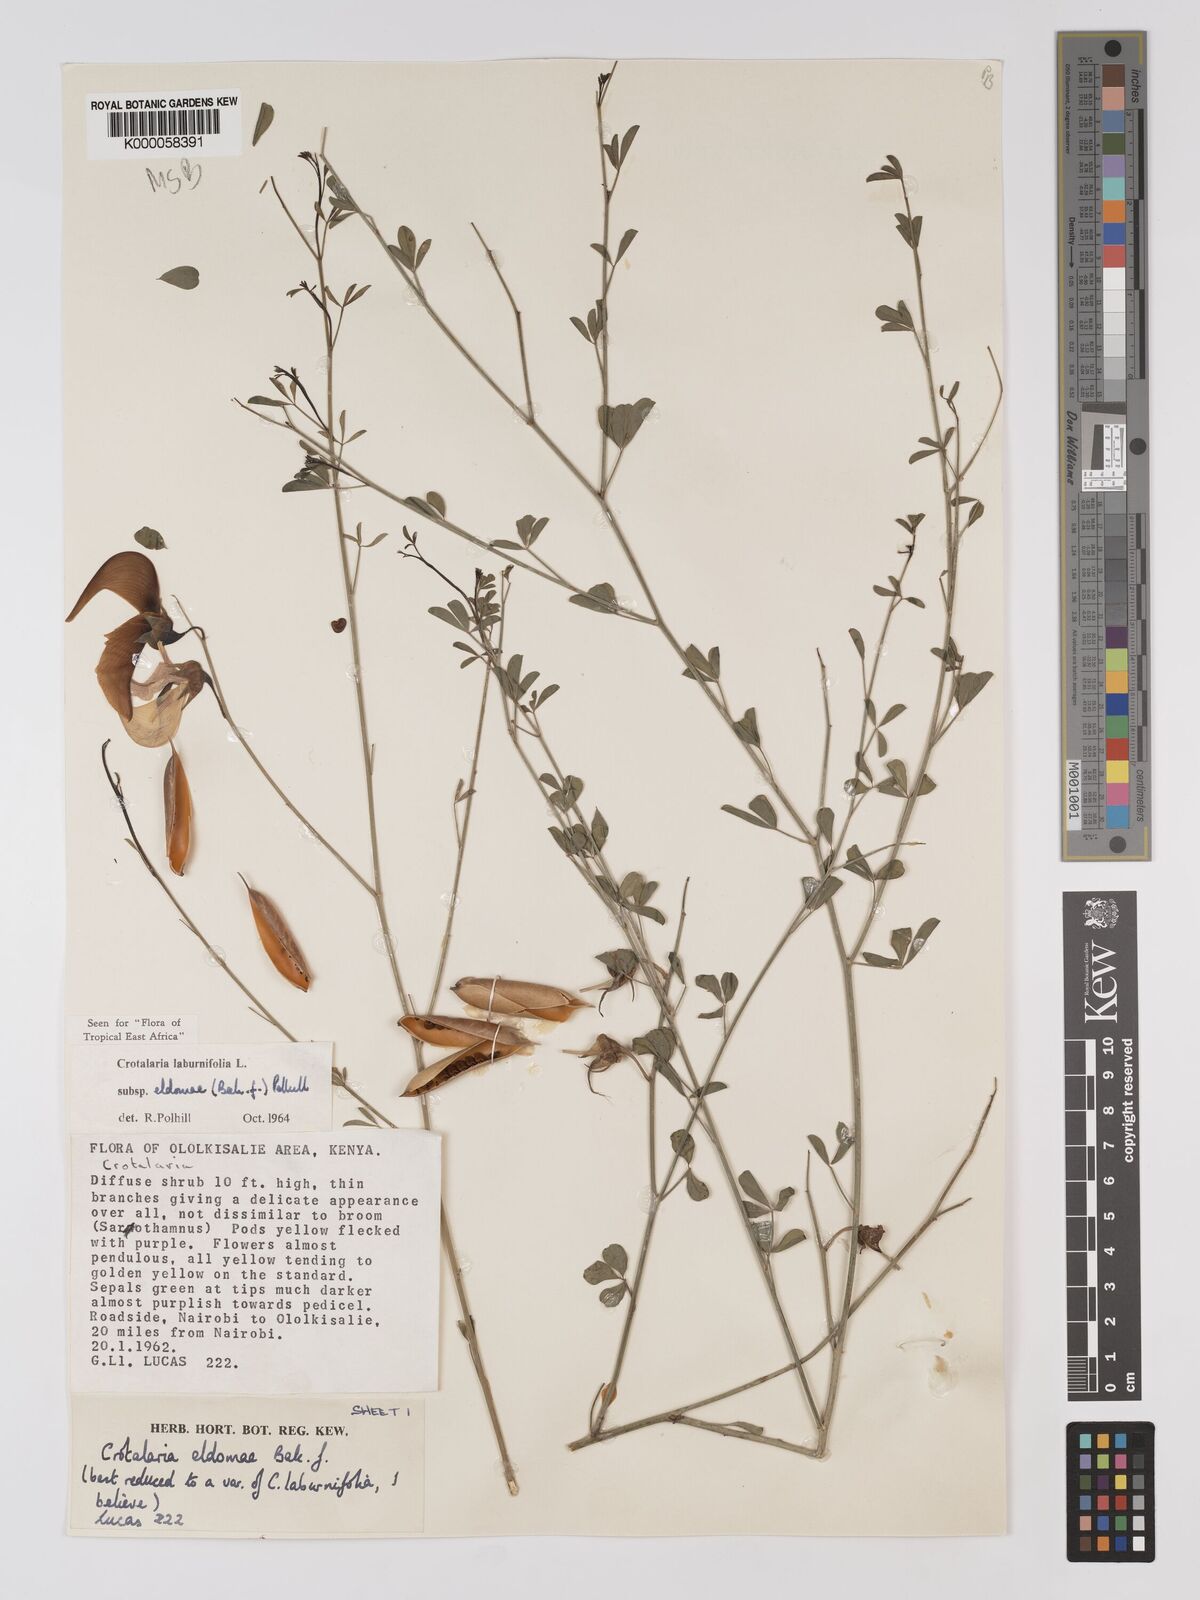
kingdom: Plantae
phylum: Tracheophyta
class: Magnoliopsida
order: Fabales
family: Fabaceae
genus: Crotalaria
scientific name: Crotalaria laburnifolia
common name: Birdflower
